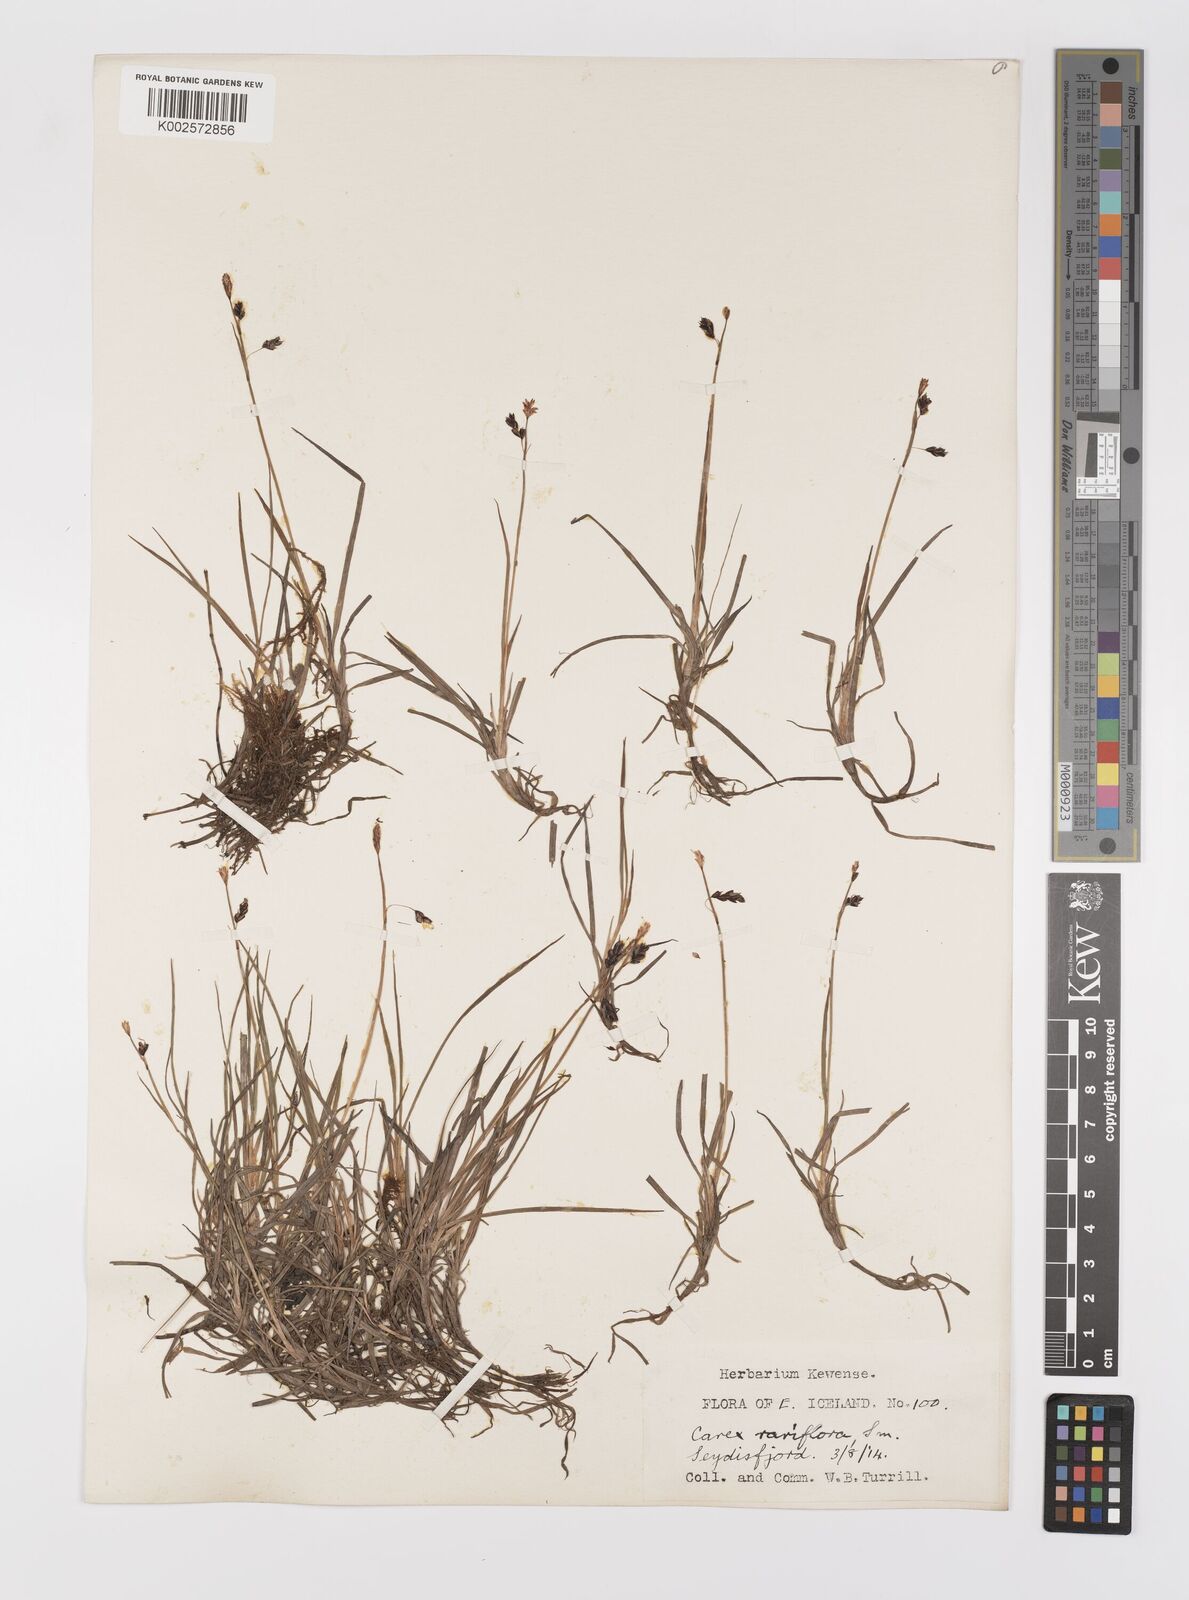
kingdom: Plantae
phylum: Tracheophyta
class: Liliopsida
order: Poales
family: Cyperaceae
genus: Carex
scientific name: Carex rariflora
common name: Loose-flowered alpine sedge
